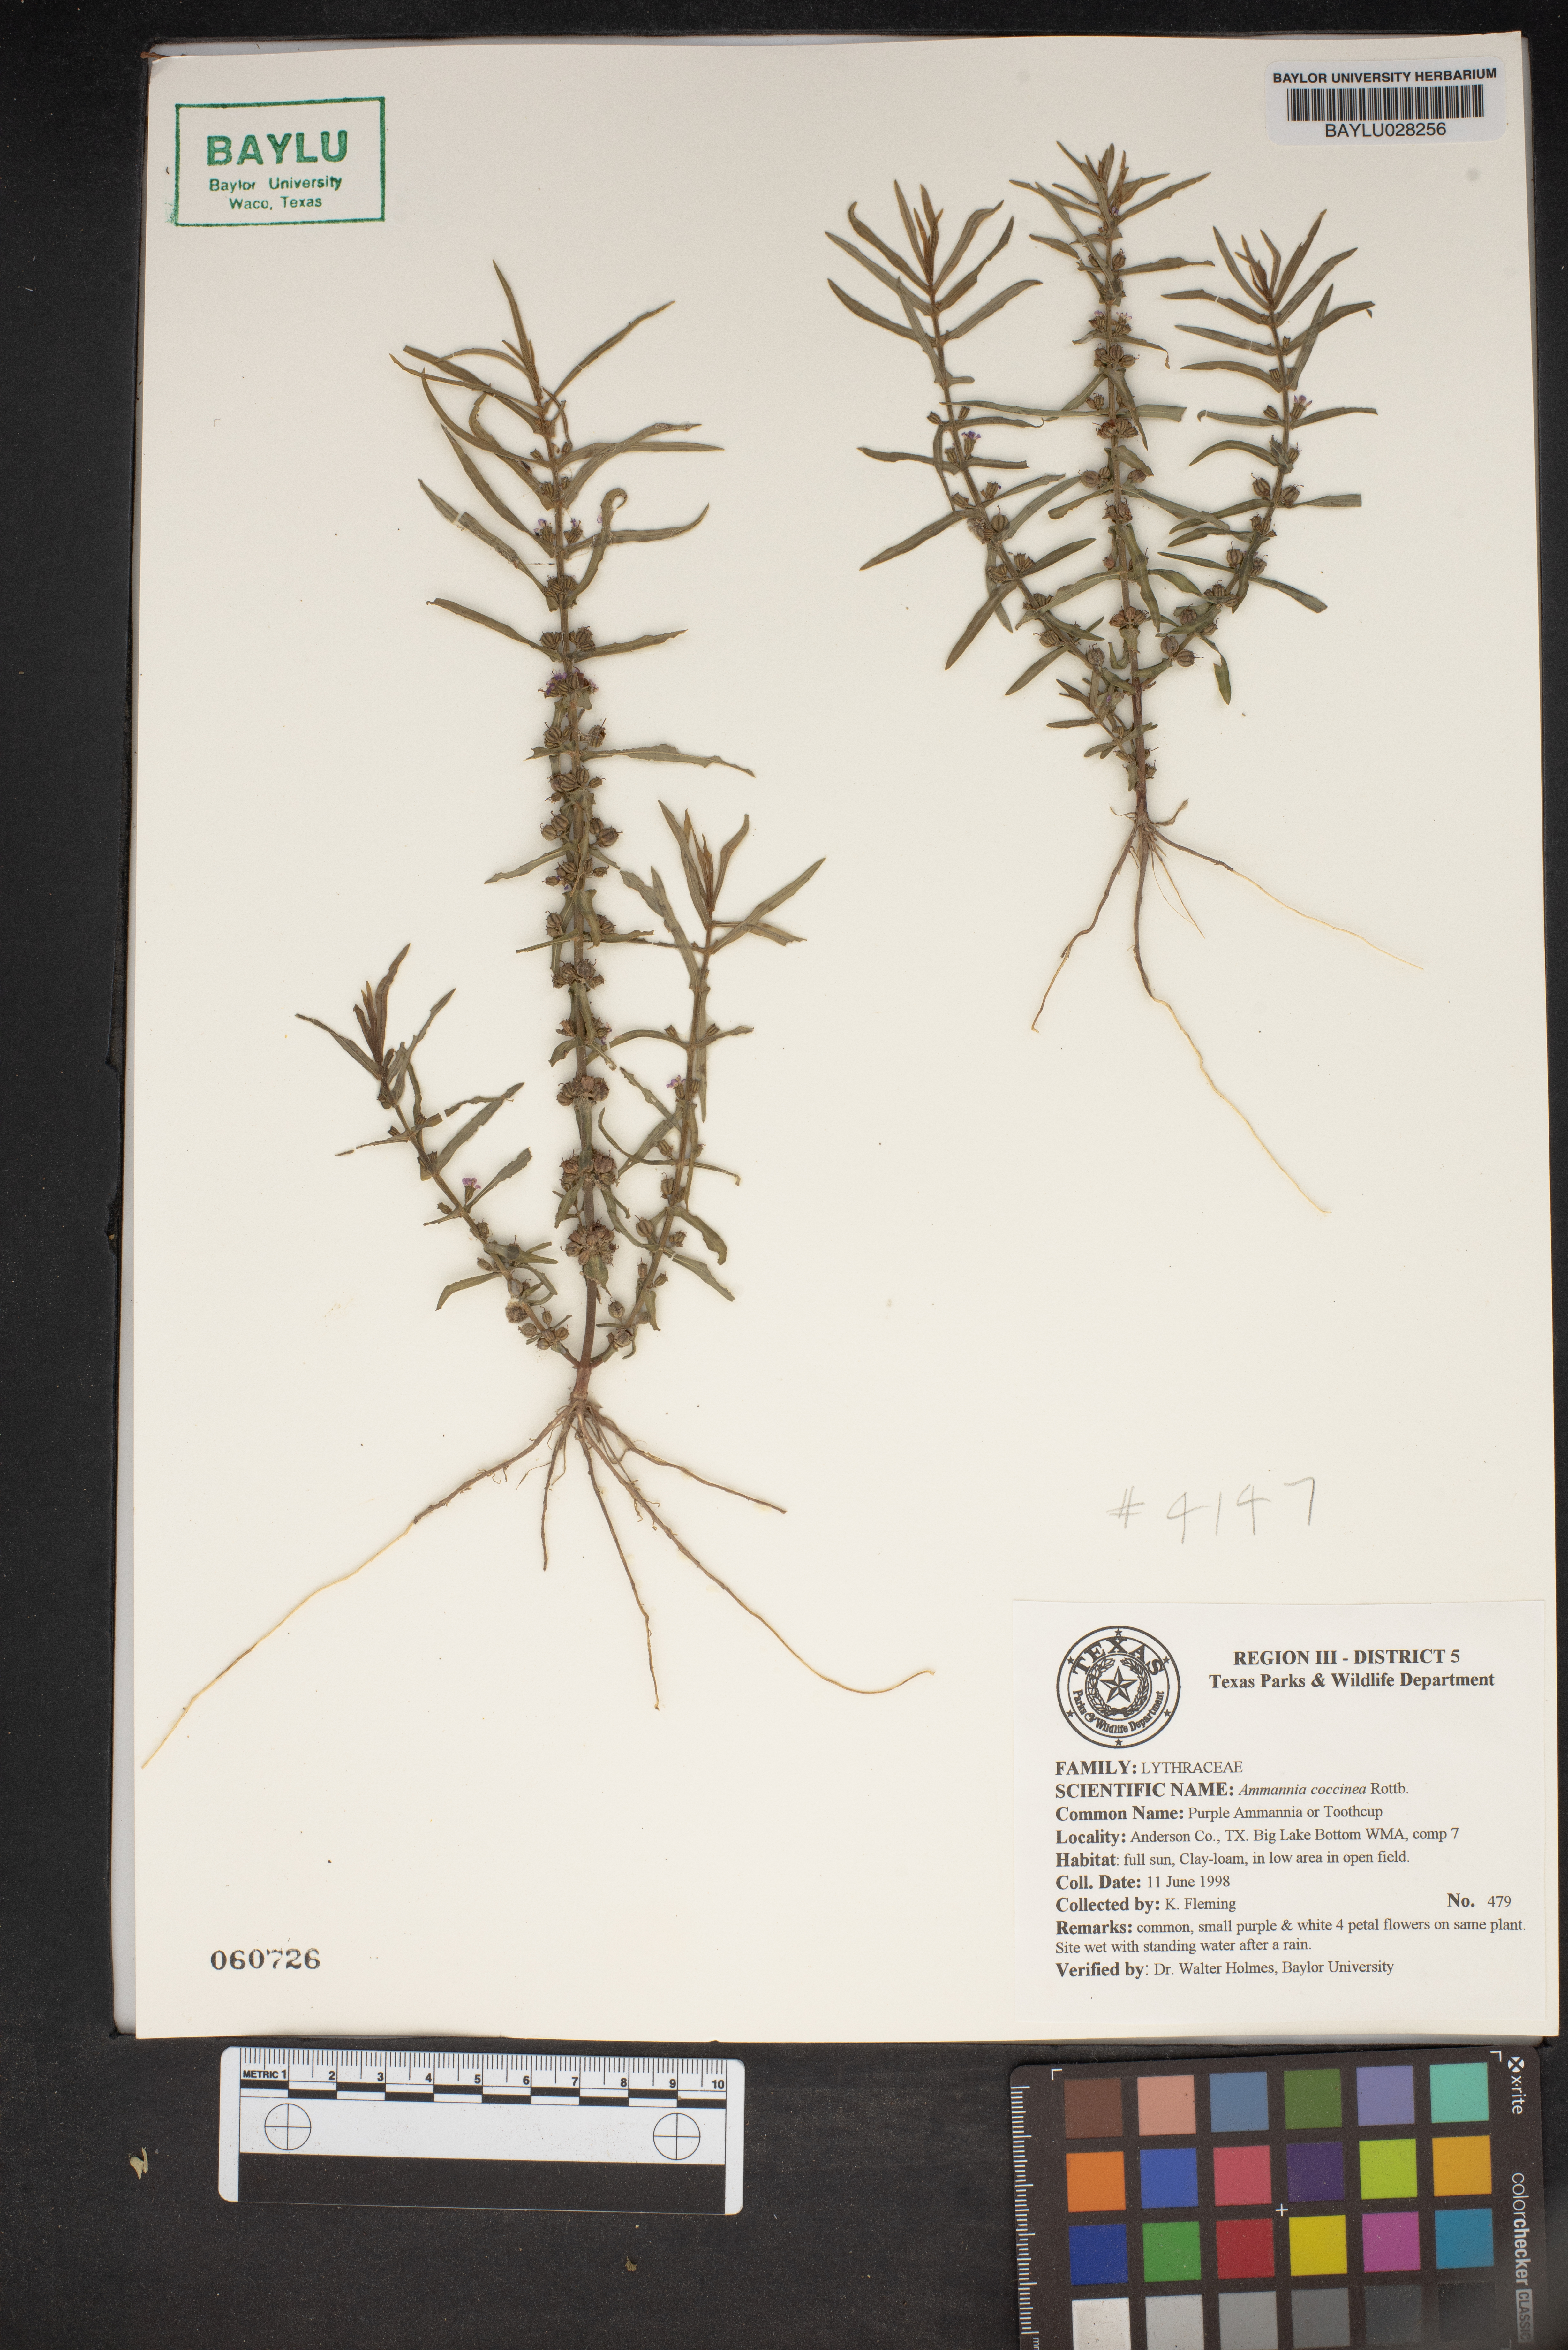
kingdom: Plantae
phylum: Tracheophyta
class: Magnoliopsida
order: Myrtales
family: Lythraceae
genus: Ammannia
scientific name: Ammannia coccinea
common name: Valley redstem
